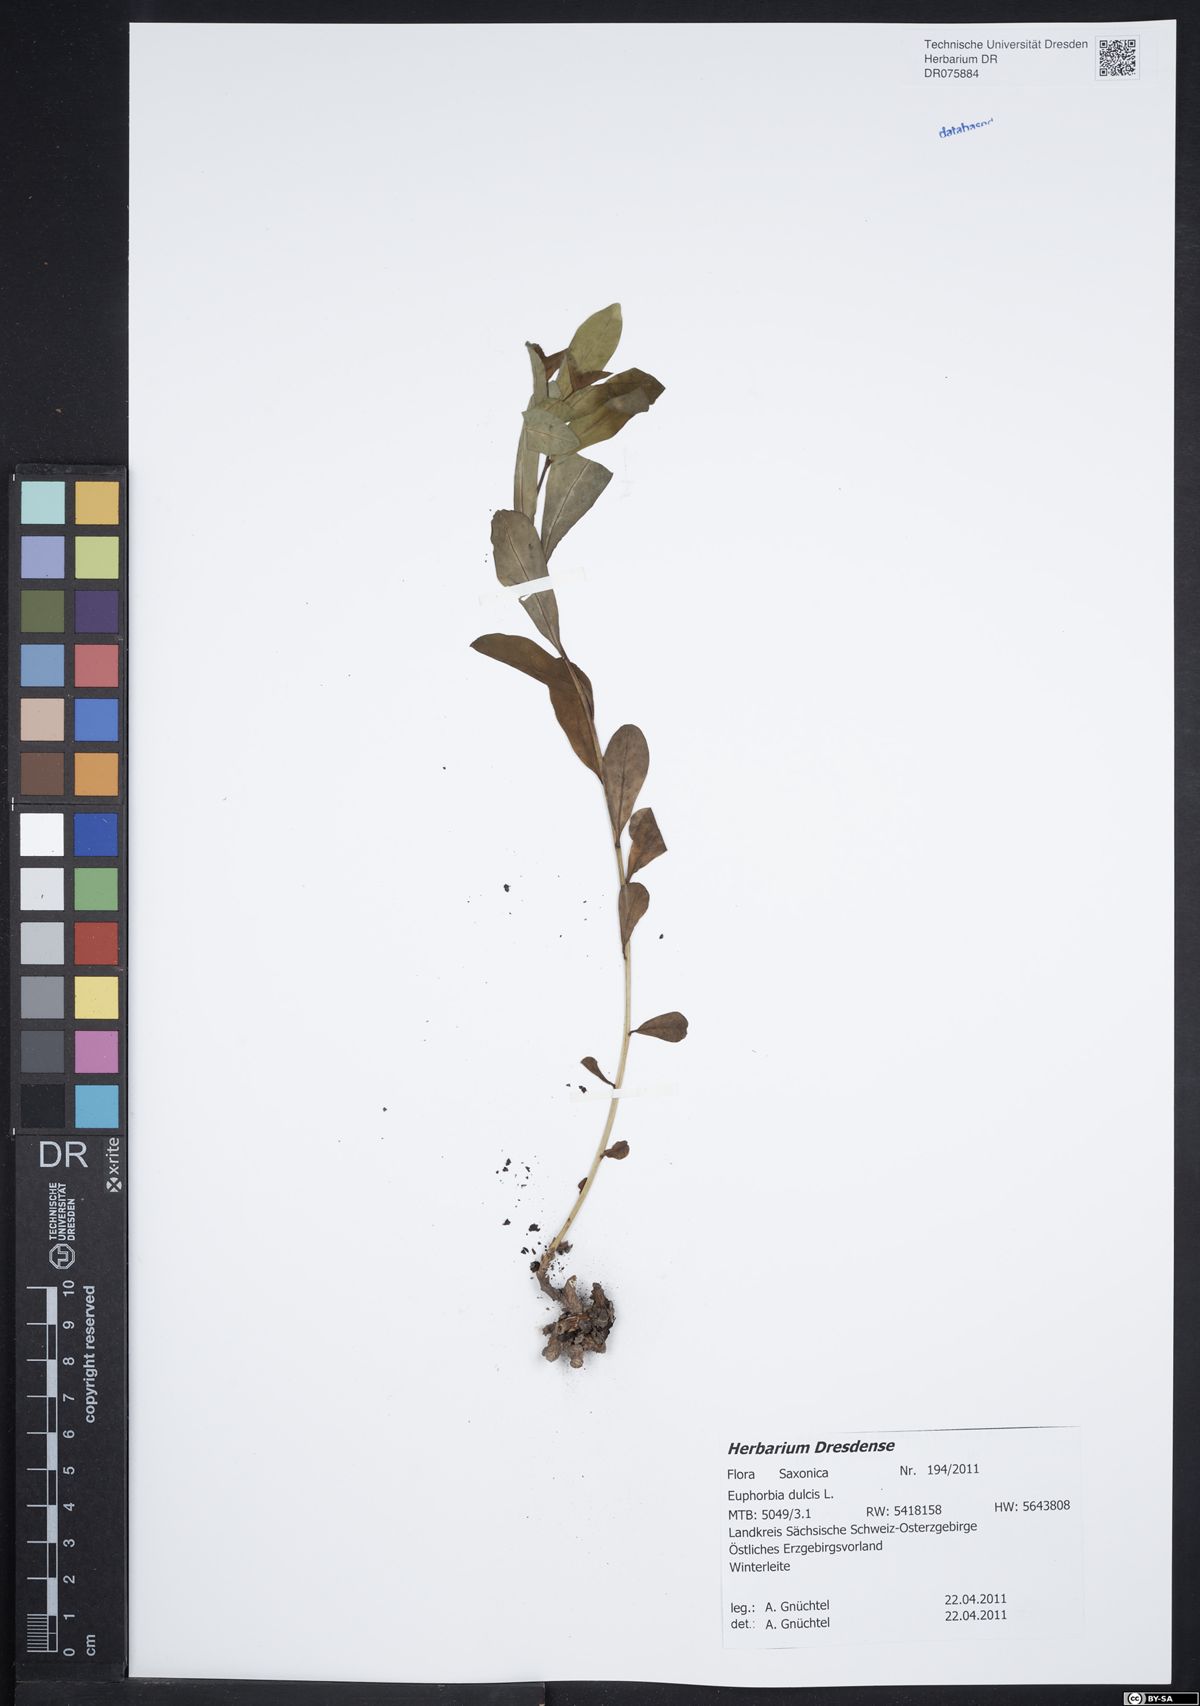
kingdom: Plantae
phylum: Tracheophyta
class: Magnoliopsida
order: Malpighiales
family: Euphorbiaceae
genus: Euphorbia
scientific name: Euphorbia dulcis
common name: Sweet spurge
